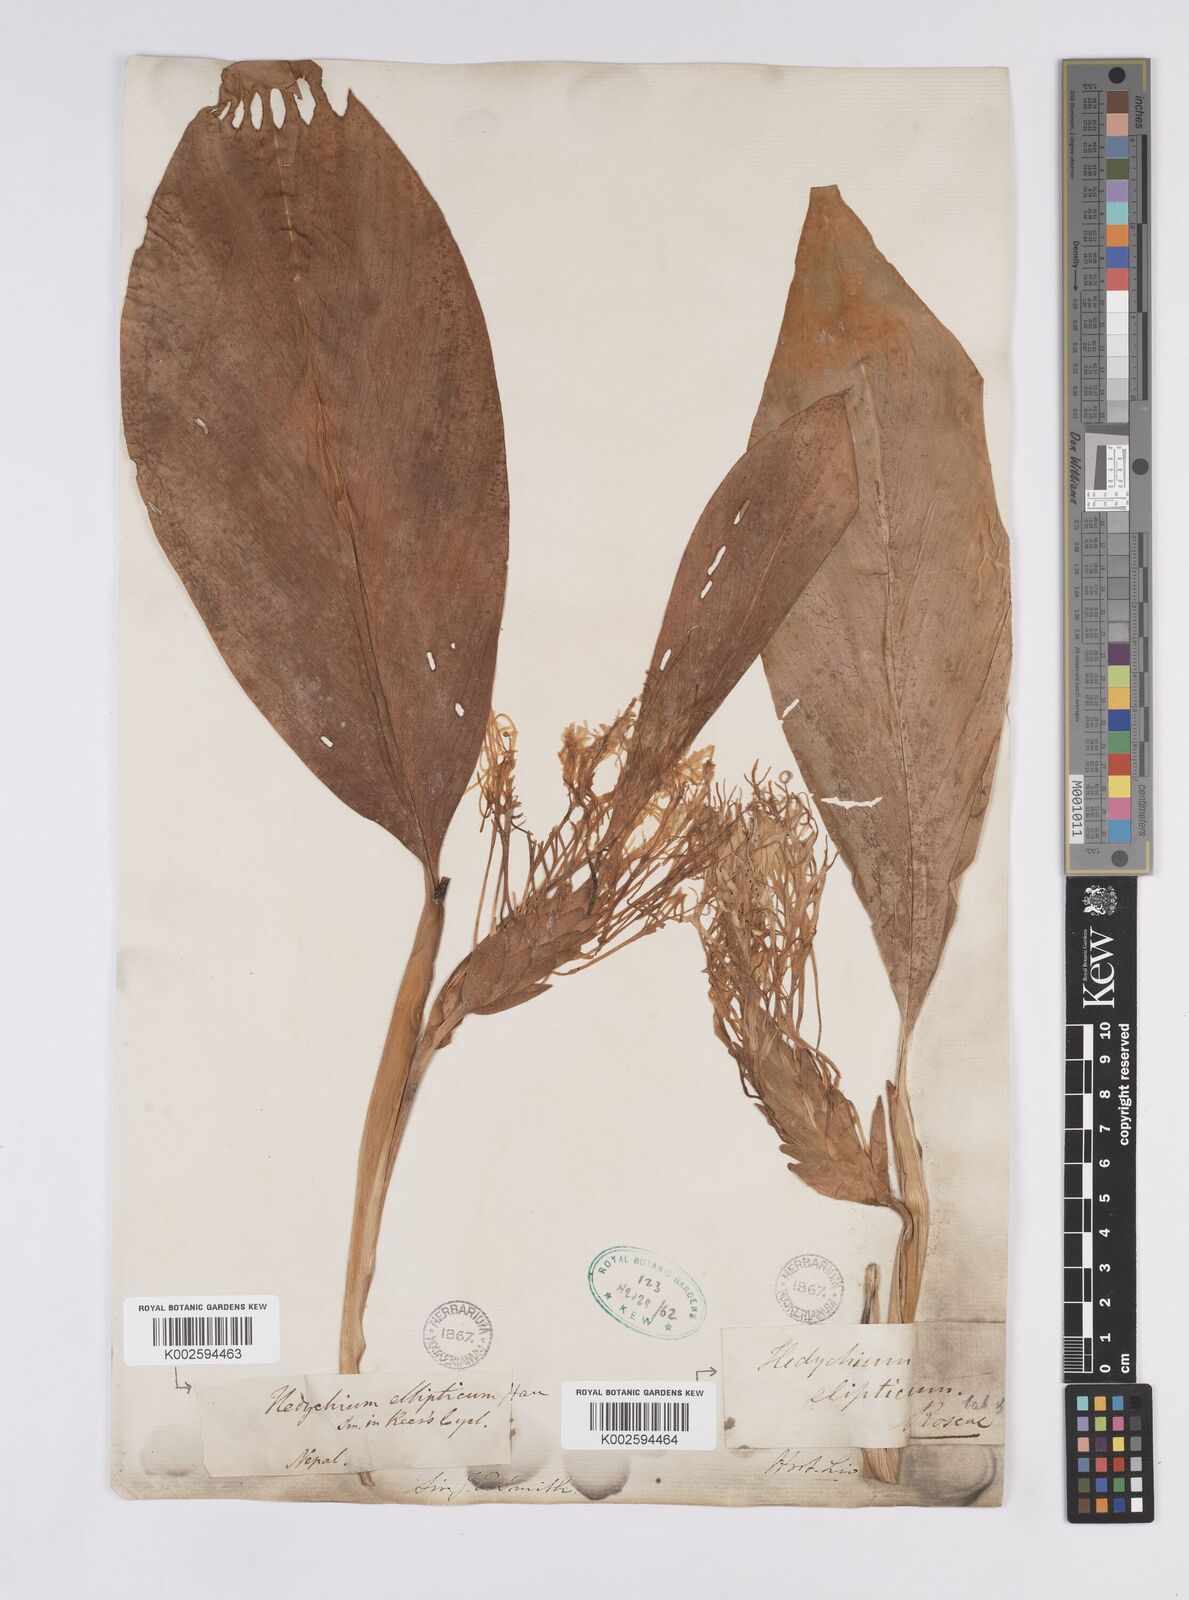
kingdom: Plantae
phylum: Tracheophyta
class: Liliopsida
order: Zingiberales
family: Zingiberaceae
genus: Hedychium
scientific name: Hedychium ellipticum
